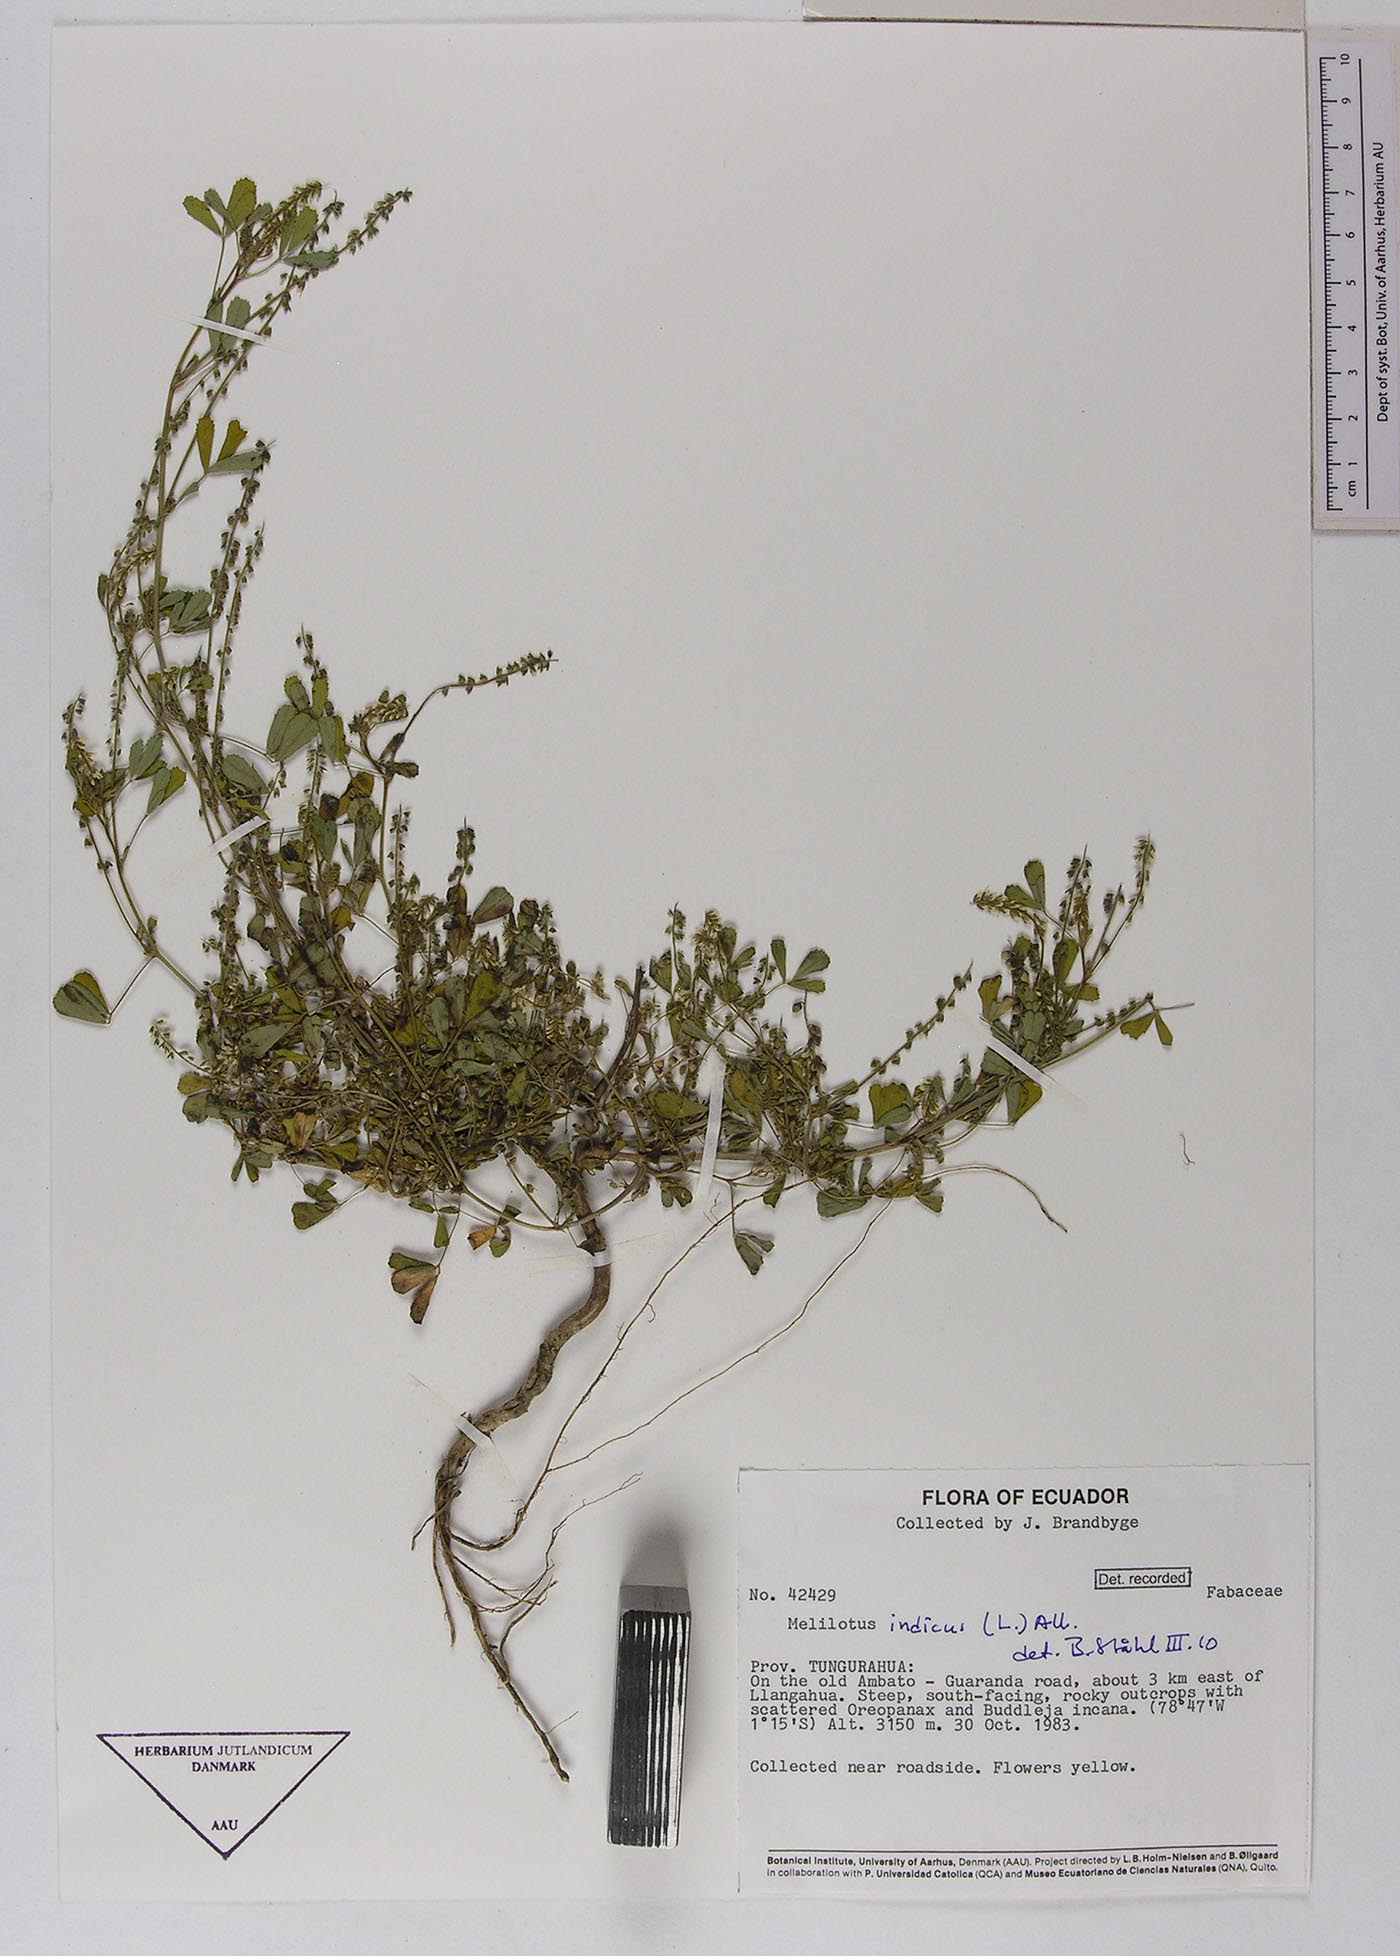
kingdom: Plantae
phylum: Tracheophyta
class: Magnoliopsida
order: Fabales
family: Fabaceae
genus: Melilotus
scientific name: Melilotus indicus
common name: Small melilot
